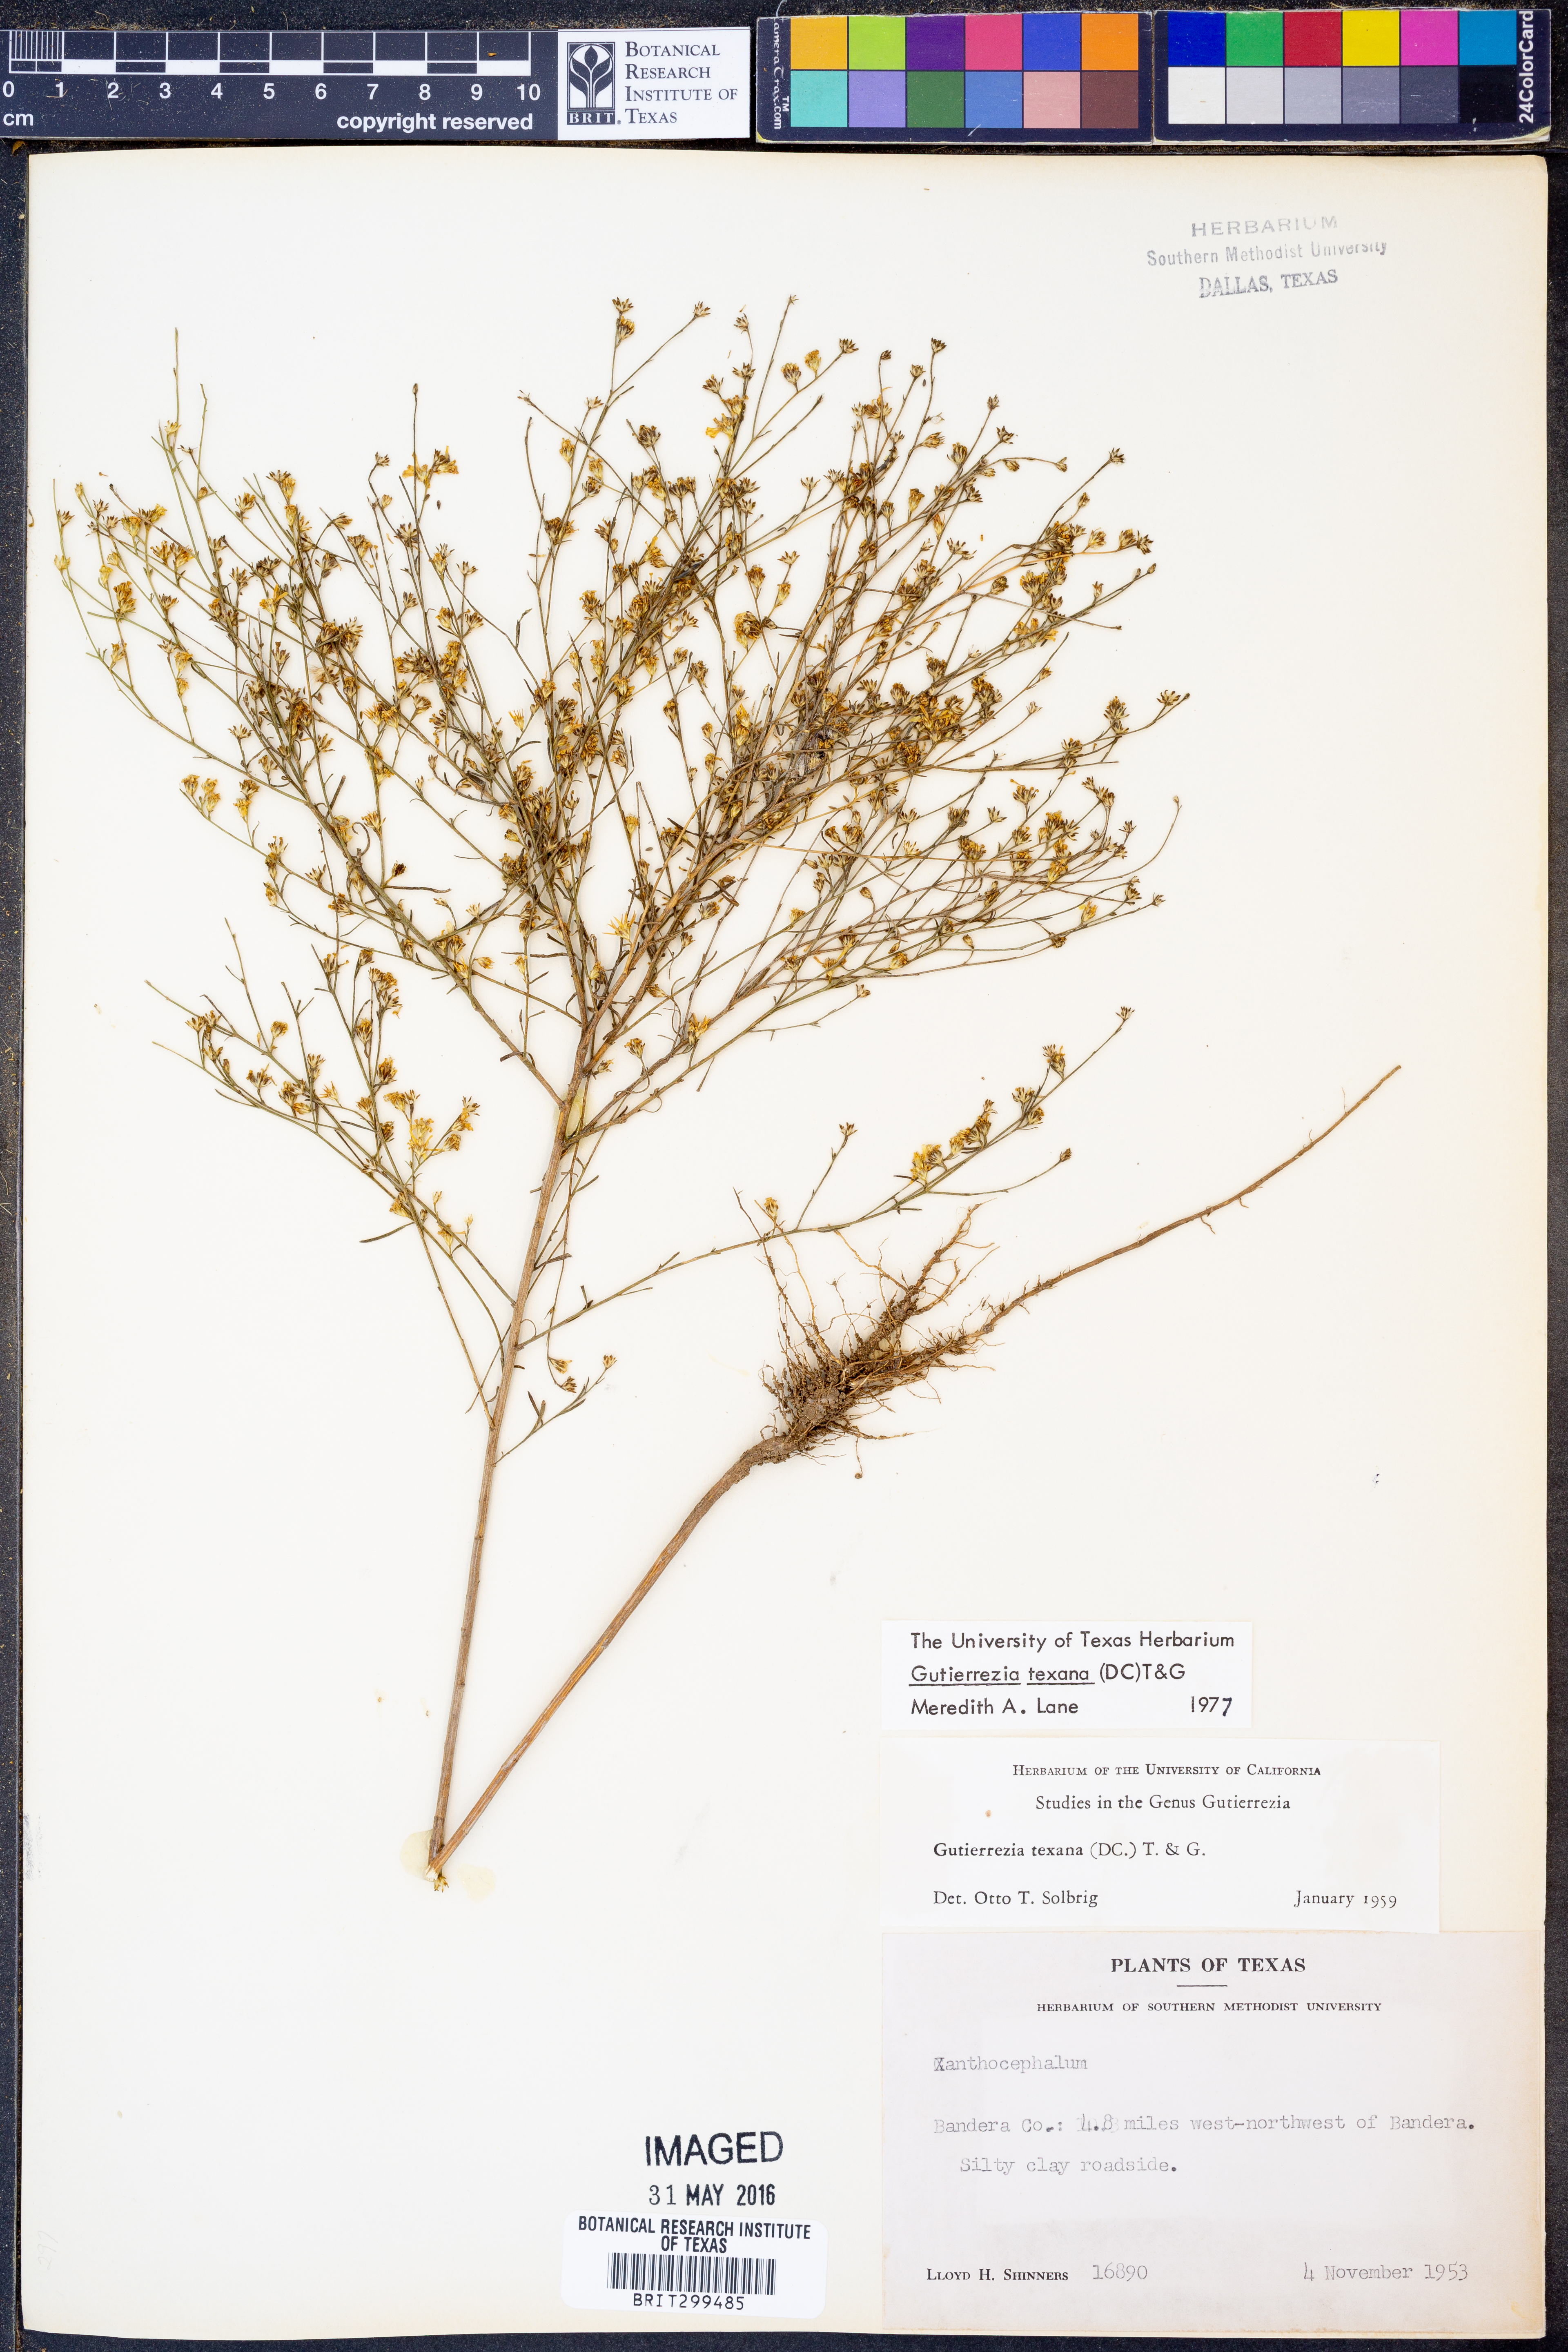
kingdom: Plantae
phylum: Tracheophyta
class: Magnoliopsida
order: Asterales
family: Asteraceae
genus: Gutierrezia
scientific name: Gutierrezia texana
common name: Texas snakeweed
